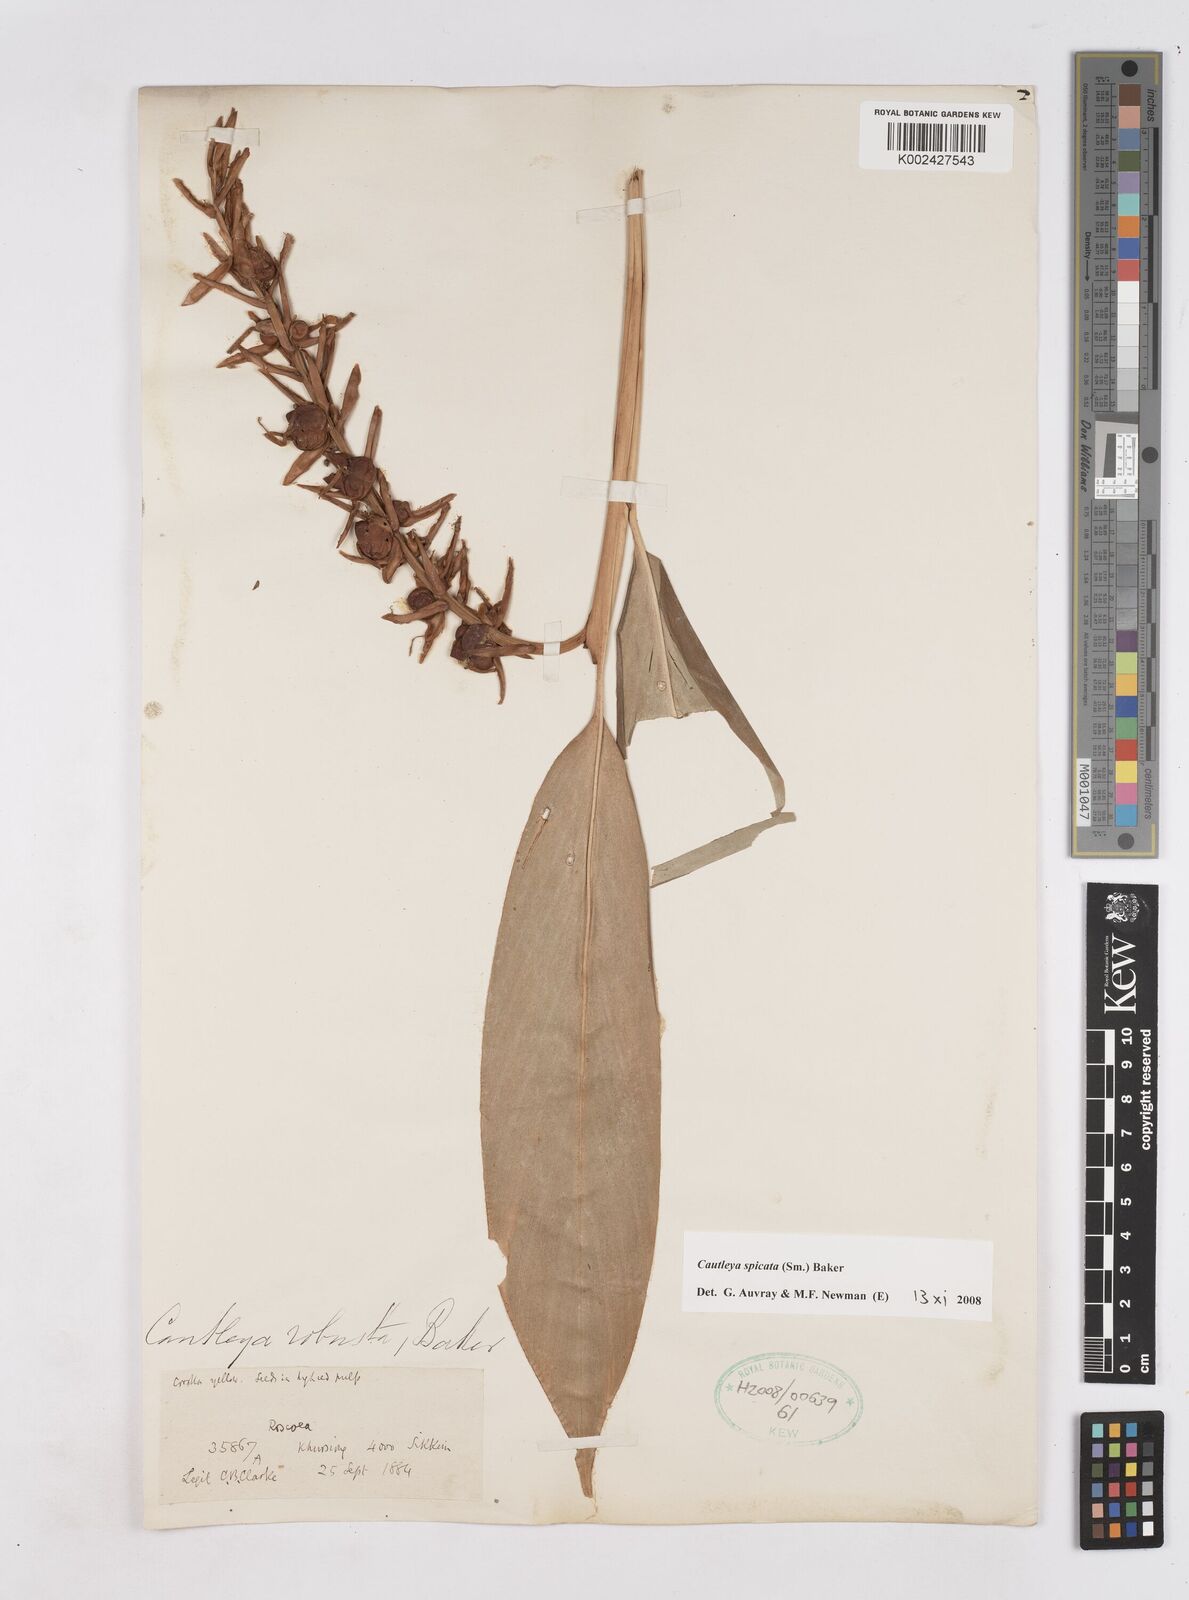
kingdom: Plantae
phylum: Tracheophyta
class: Liliopsida
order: Zingiberales
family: Zingiberaceae
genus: Cautleya
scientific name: Cautleya spicata
